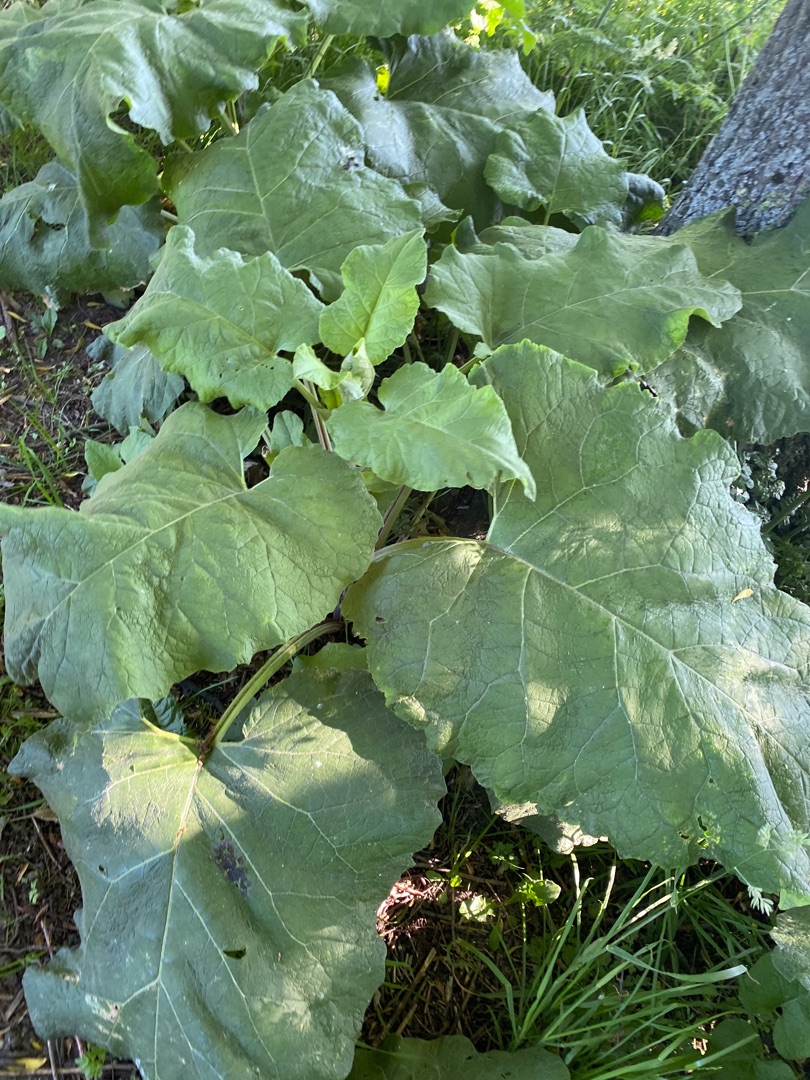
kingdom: Plantae
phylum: Tracheophyta
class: Magnoliopsida
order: Asterales
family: Asteraceae
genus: Arctium
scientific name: Arctium
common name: Burreslægten
